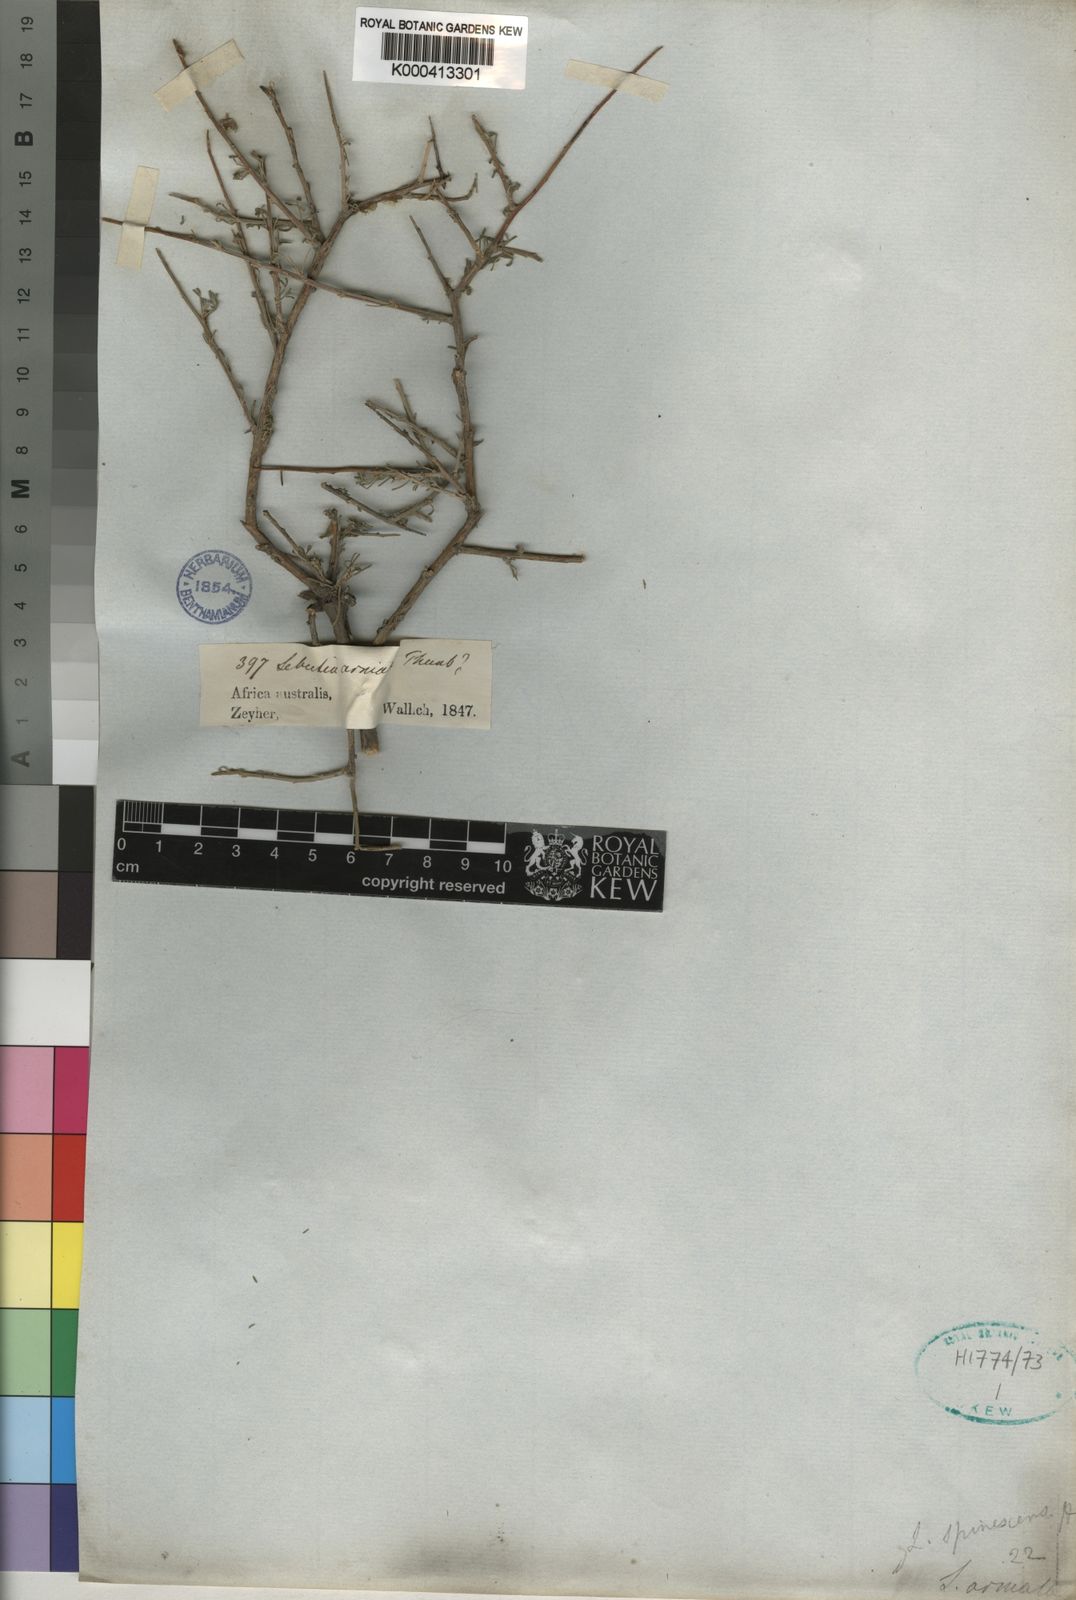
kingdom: Plantae
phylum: Tracheophyta
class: Magnoliopsida
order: Fabales
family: Fabaceae
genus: Calobota
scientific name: Calobota spinescens
